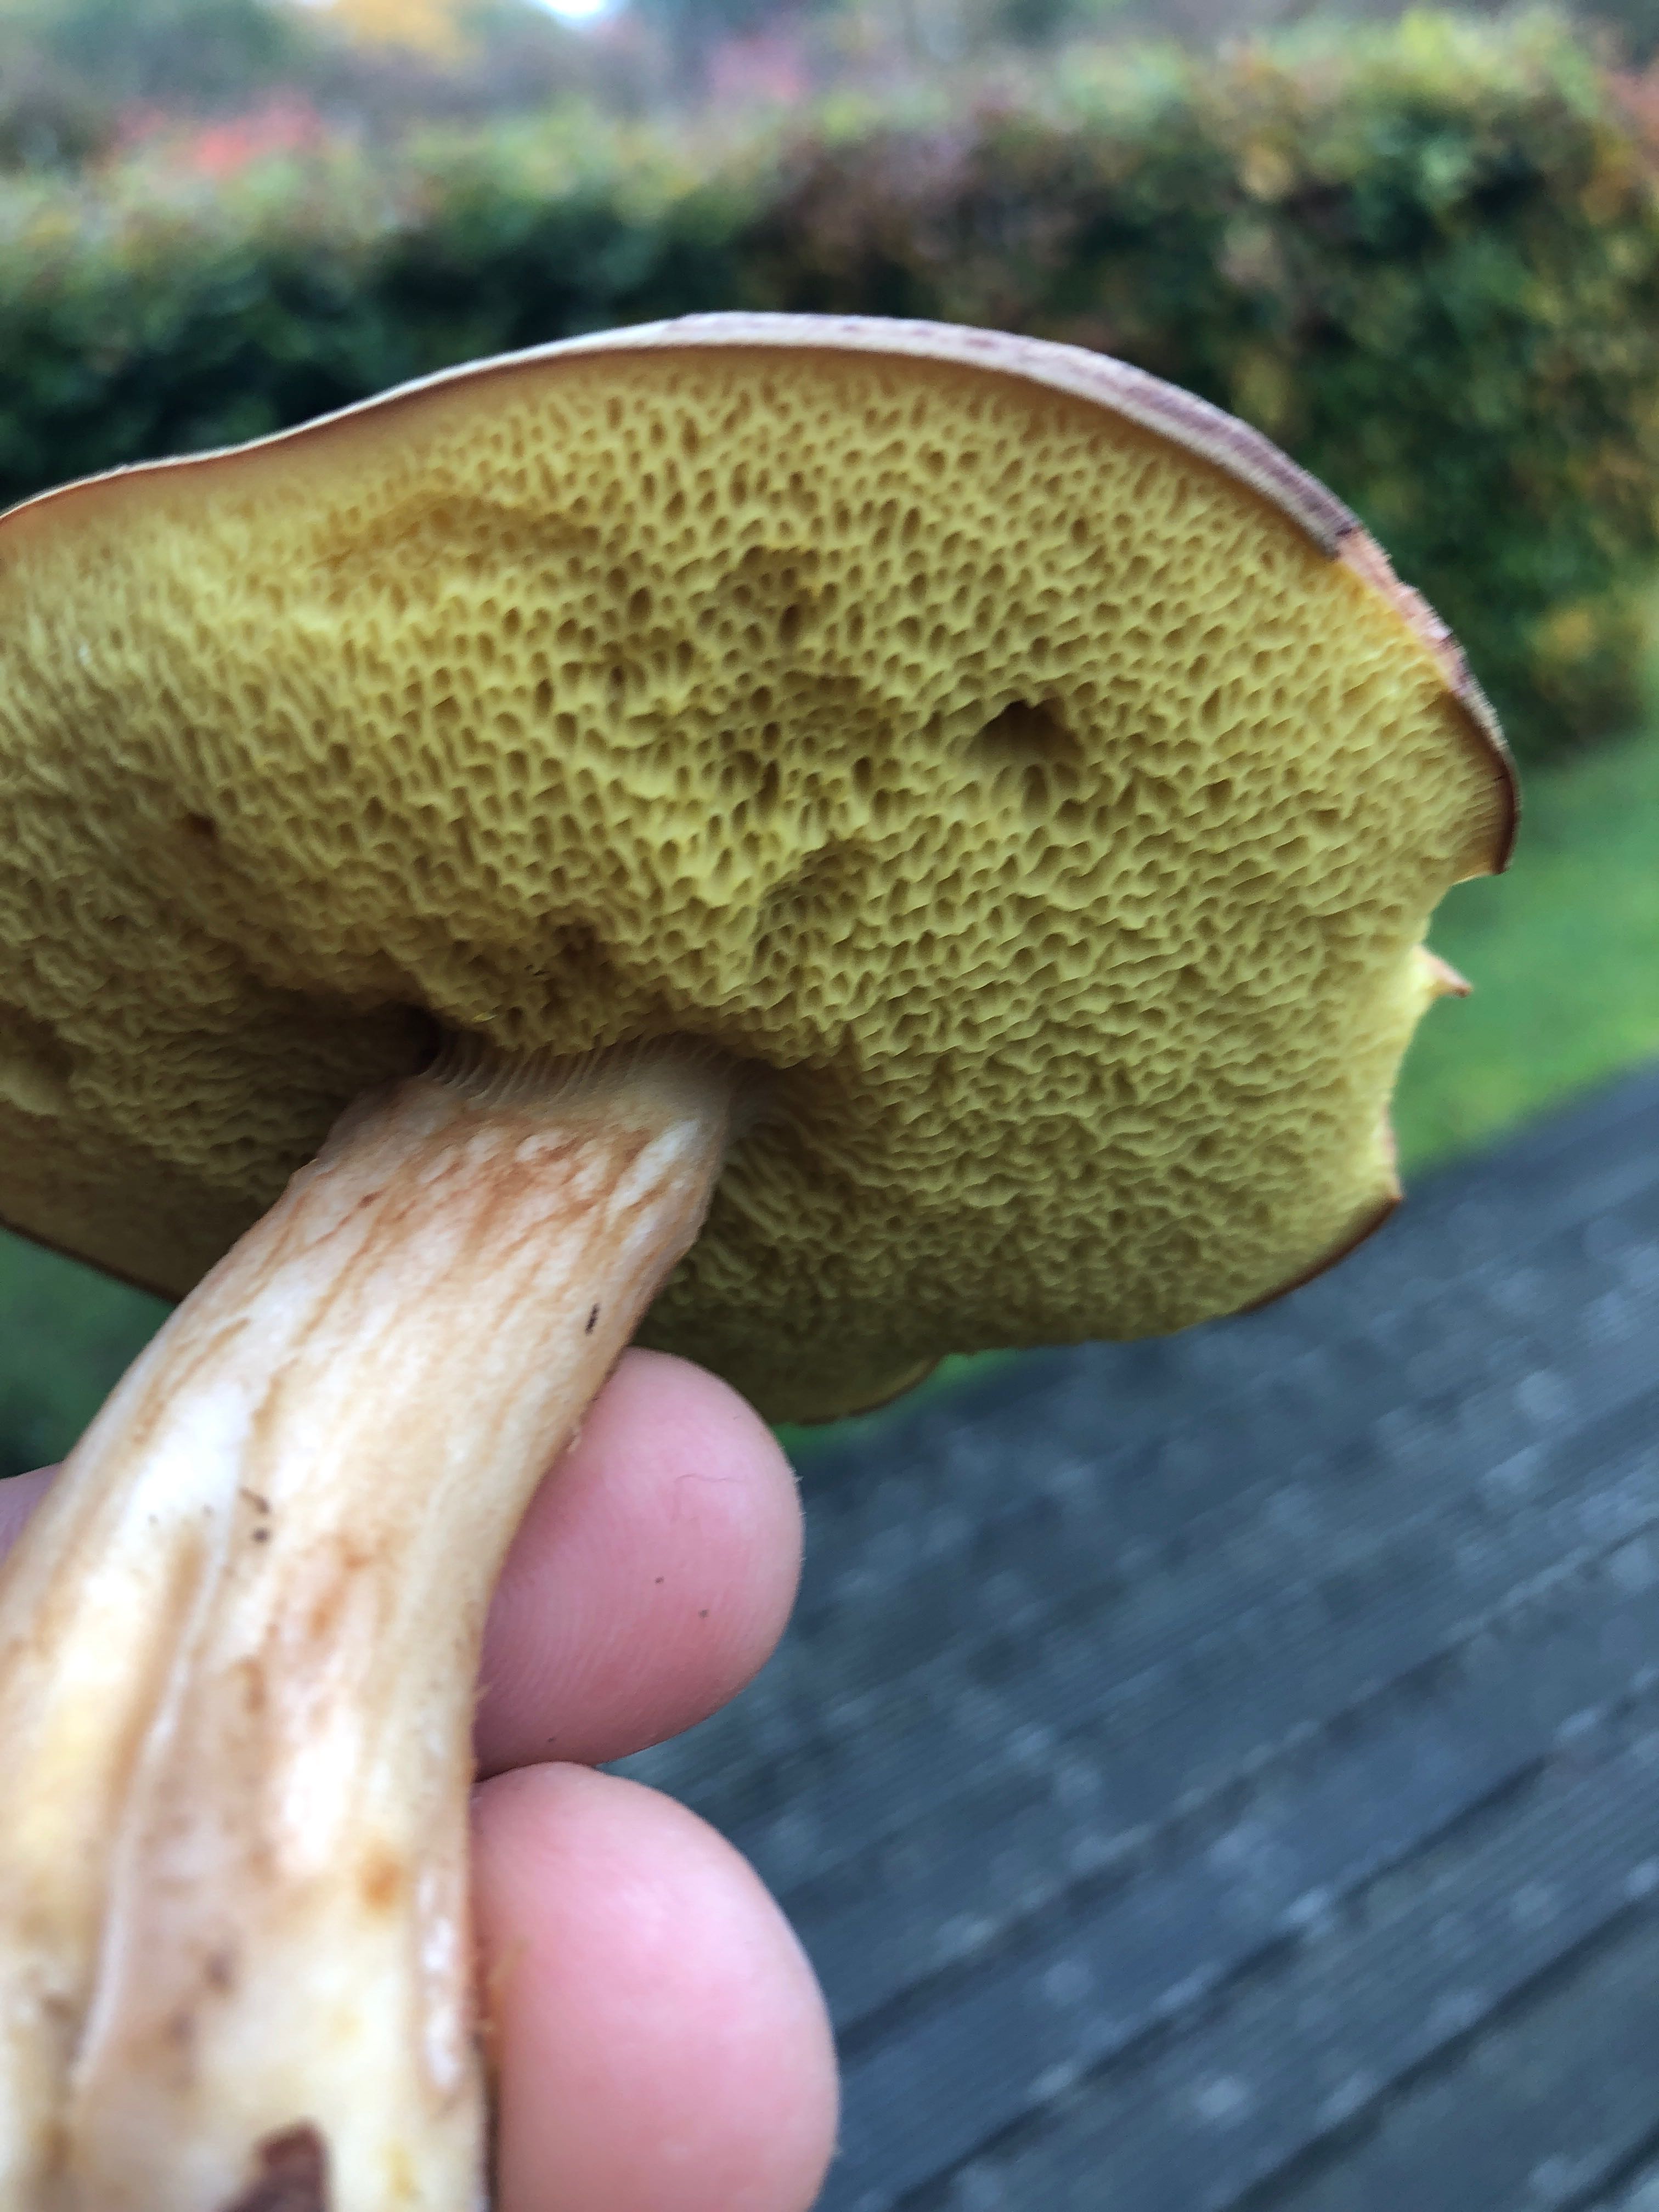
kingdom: Fungi
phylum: Basidiomycota
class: Agaricomycetes
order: Boletales
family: Boletaceae
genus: Xerocomus
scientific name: Xerocomus
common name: filtrørhat
